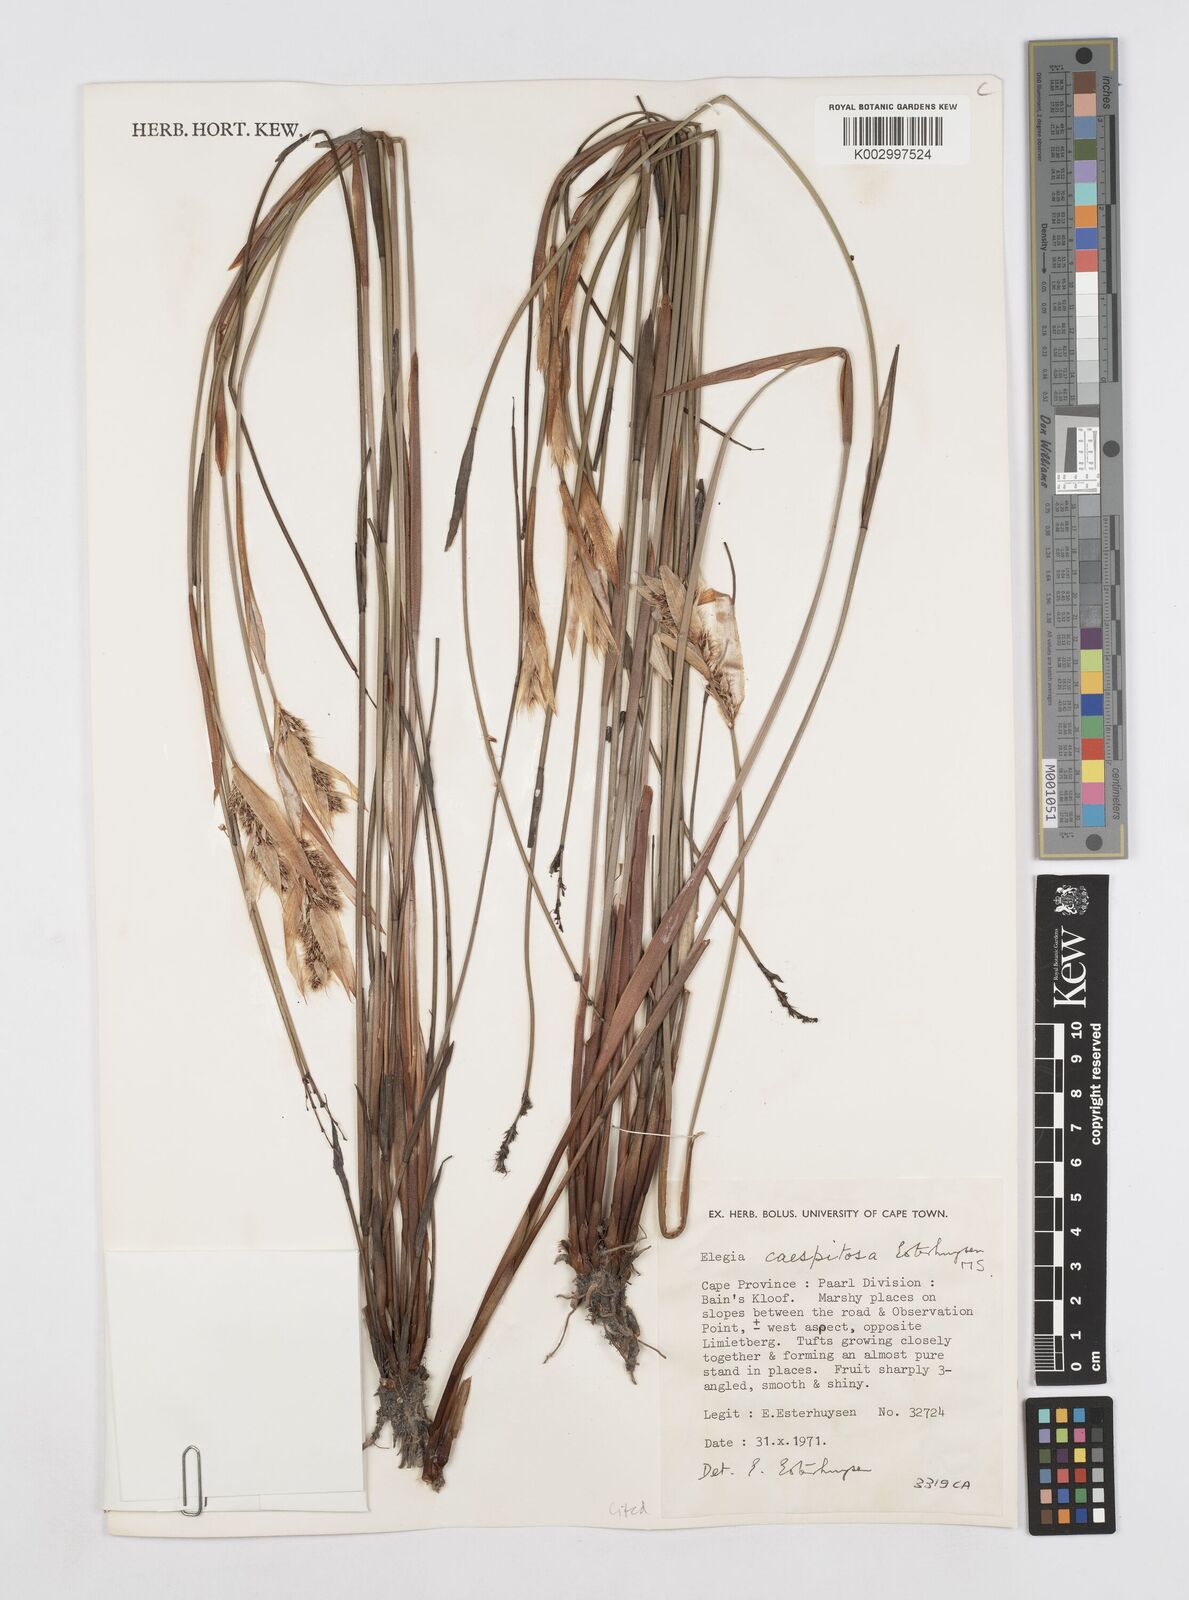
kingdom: Plantae
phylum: Tracheophyta
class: Liliopsida
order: Poales
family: Restionaceae
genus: Elegia
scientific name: Elegia caespitosa
